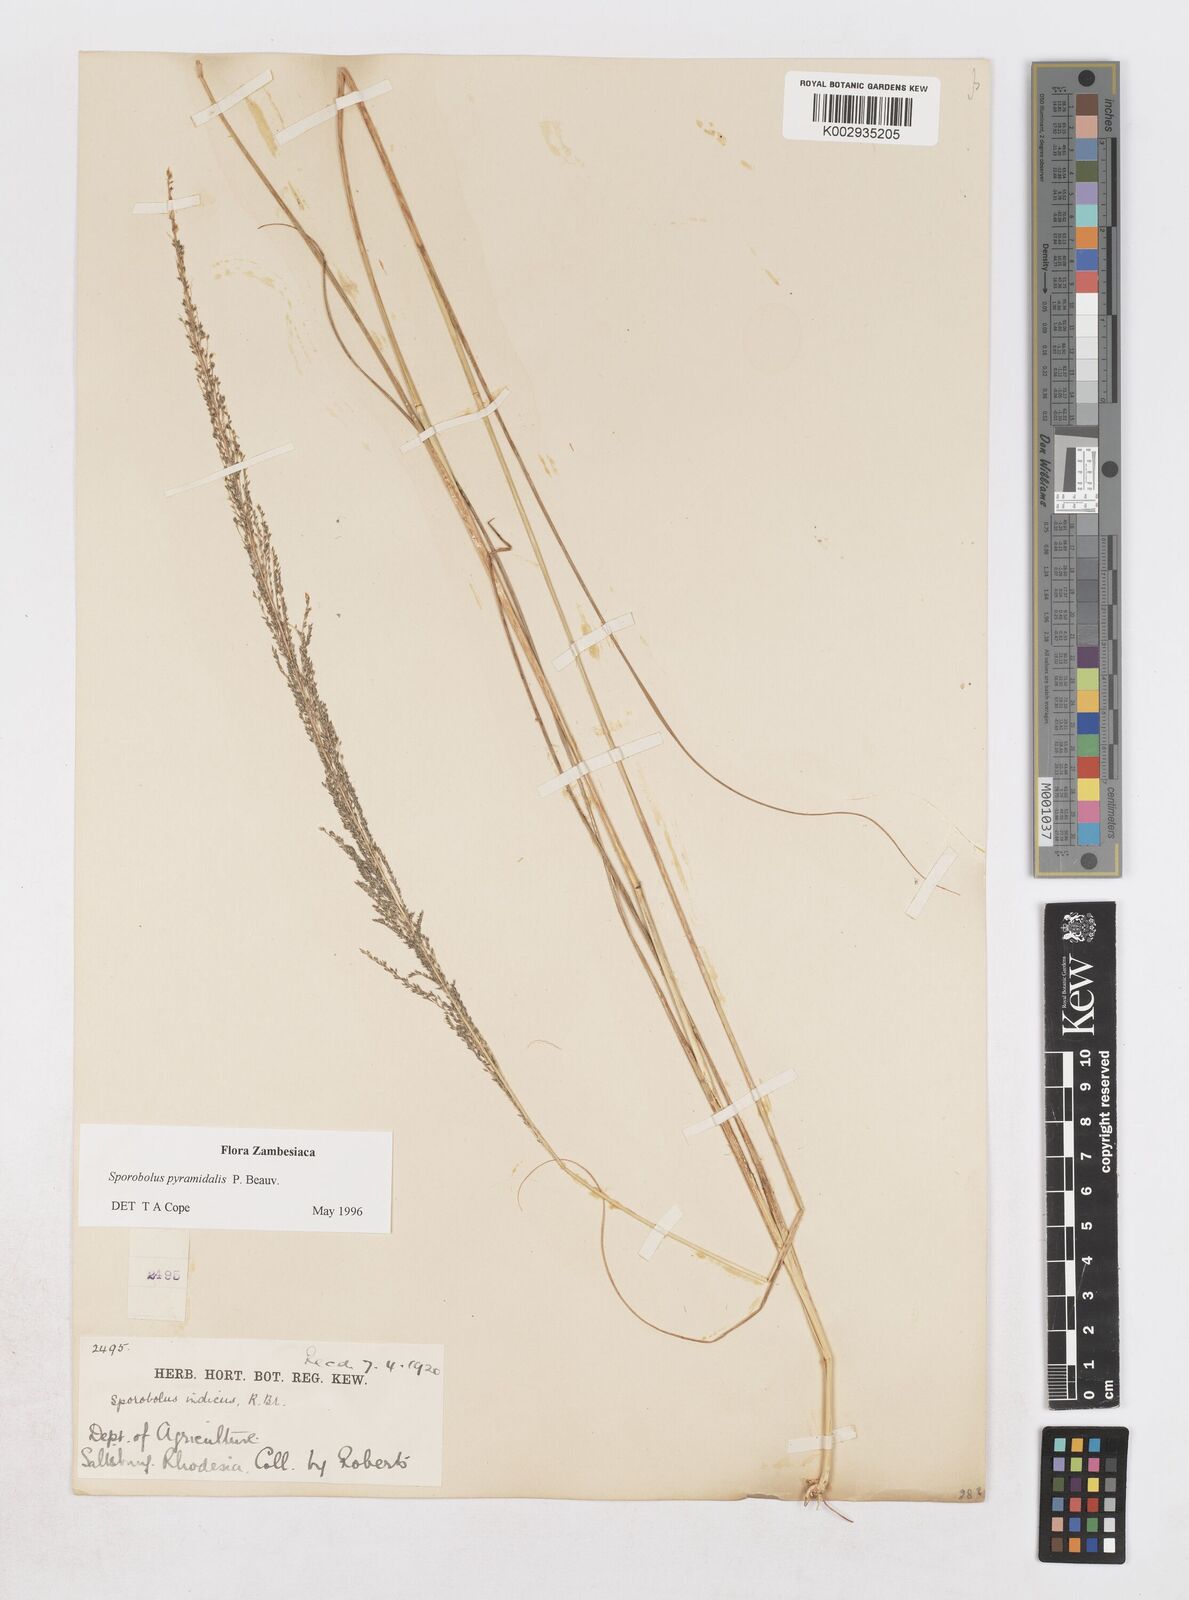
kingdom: Plantae
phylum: Tracheophyta
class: Liliopsida
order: Poales
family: Poaceae
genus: Sporobolus
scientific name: Sporobolus pyramidalis
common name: West indian dropseed
